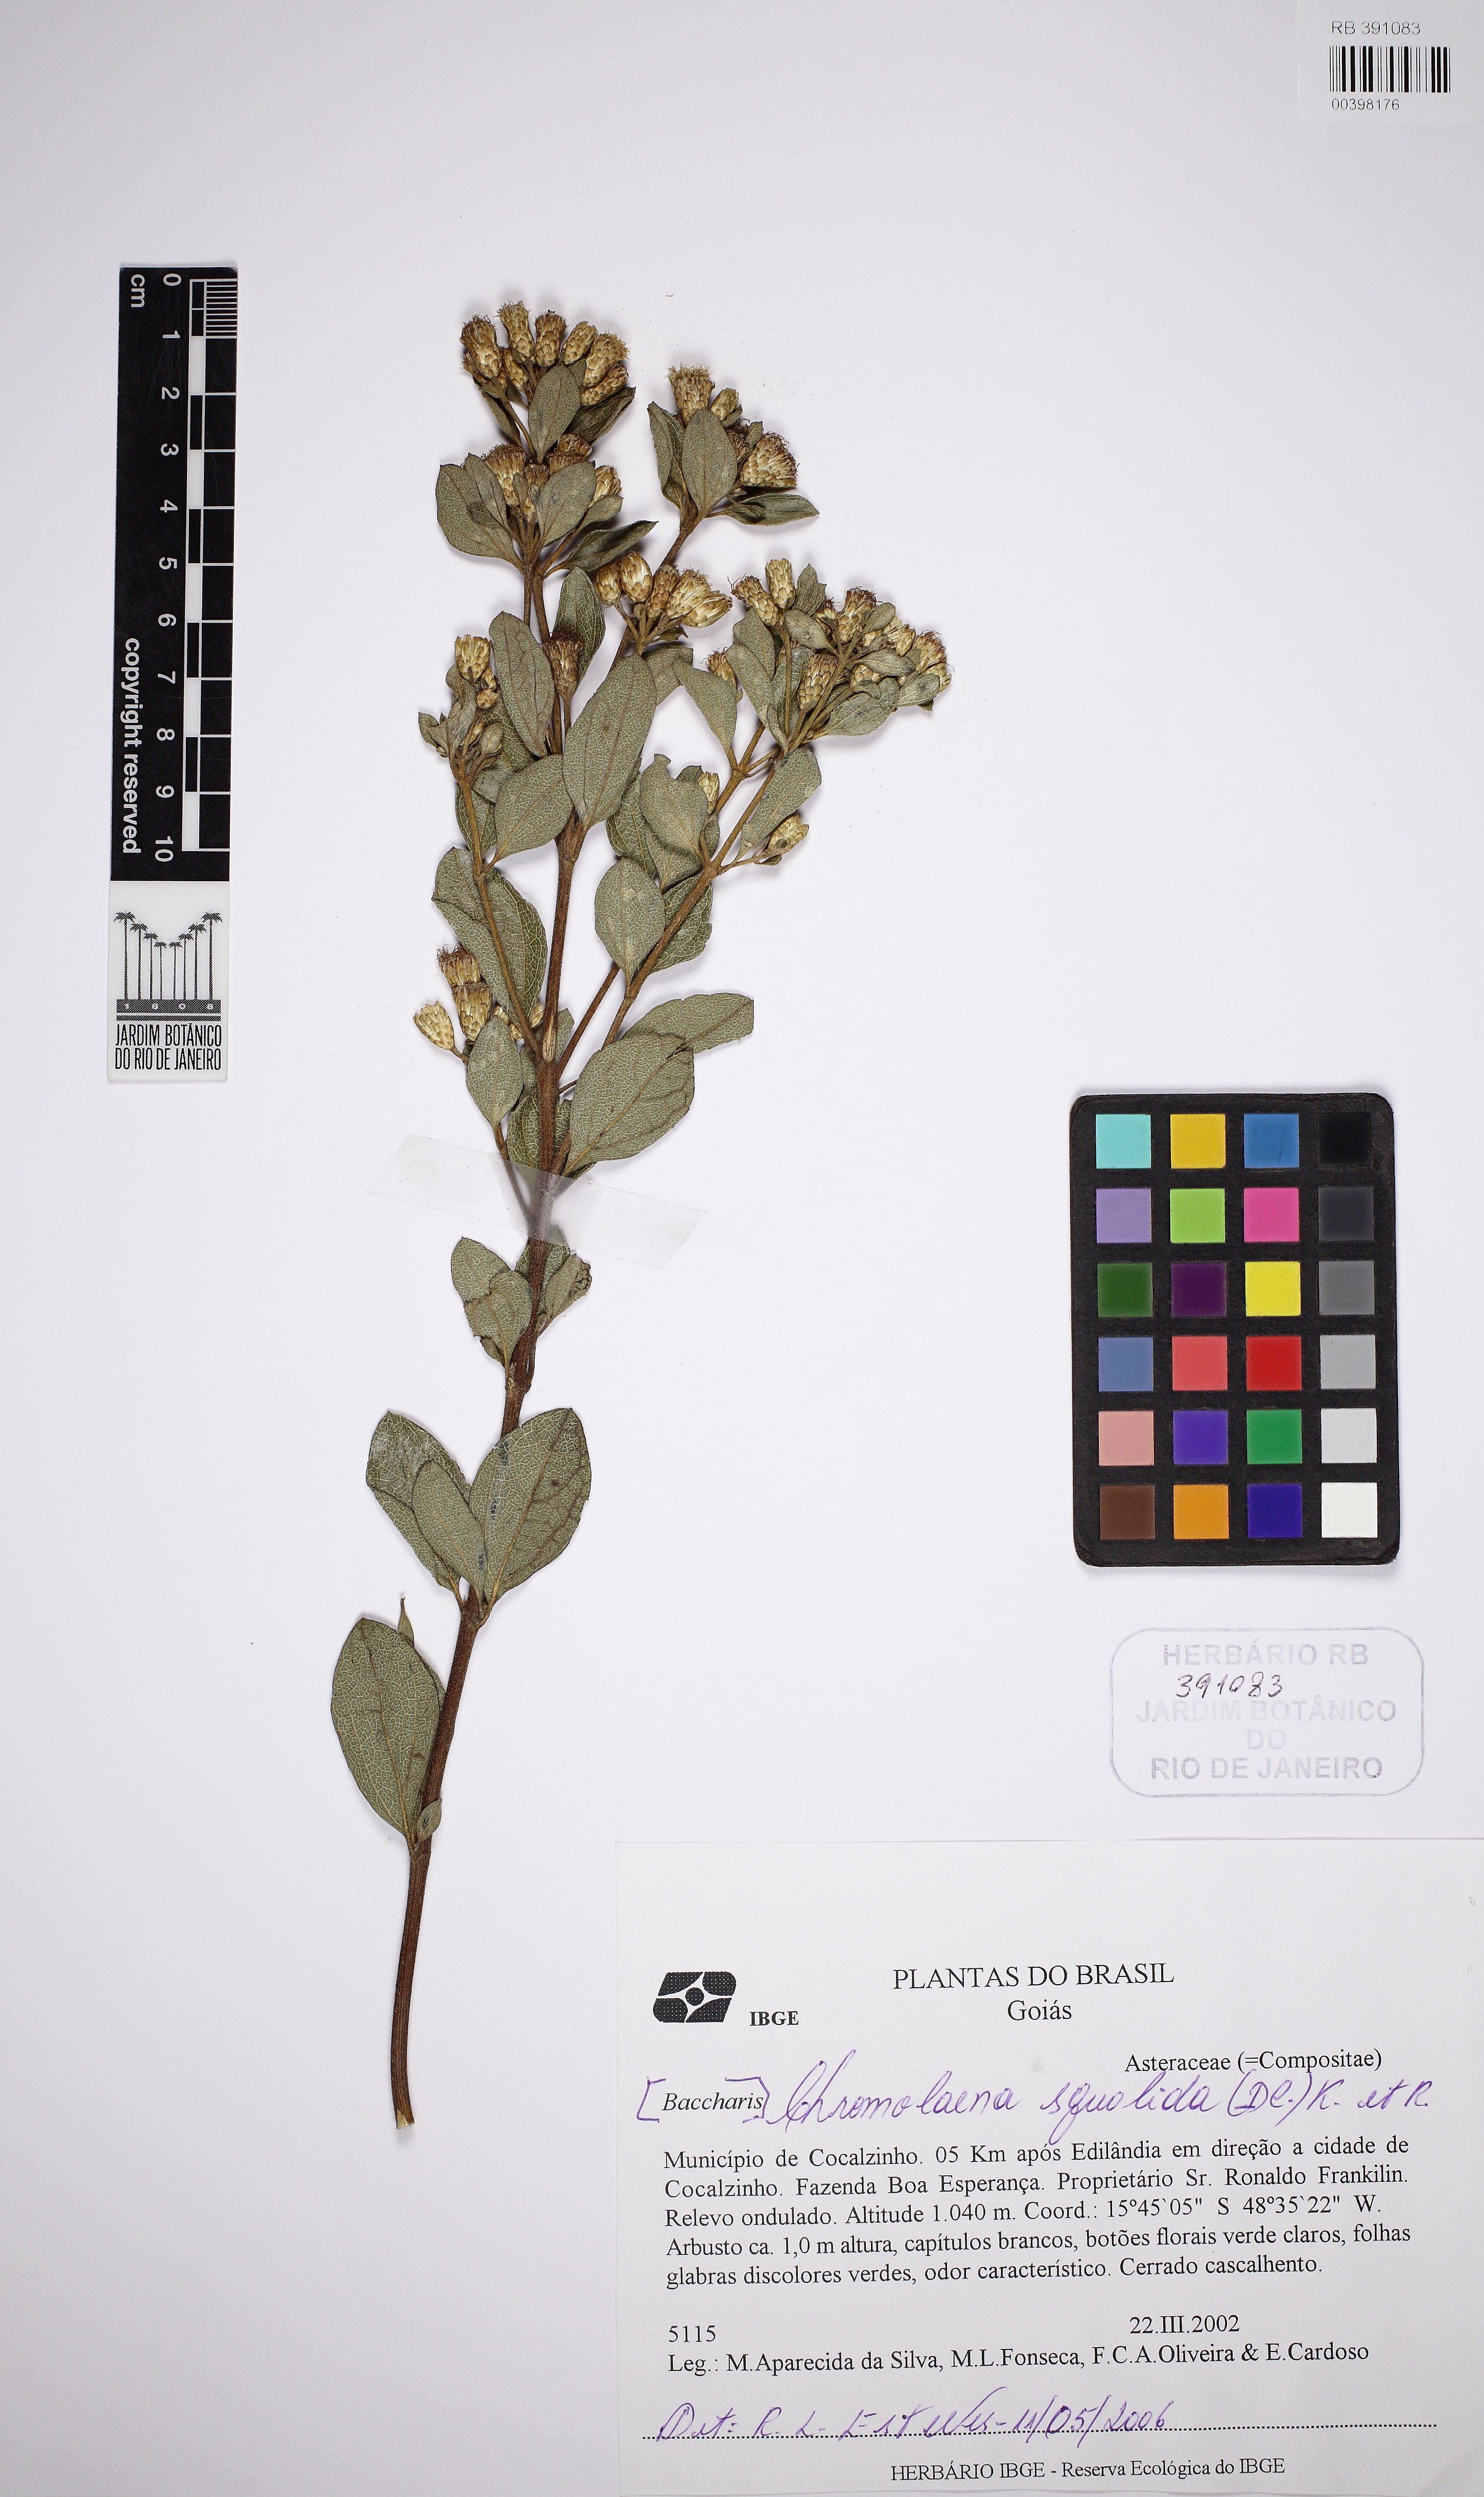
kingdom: Plantae
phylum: Tracheophyta
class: Magnoliopsida
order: Asterales
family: Asteraceae
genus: Chromolaena
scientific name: Chromolaena squalida
